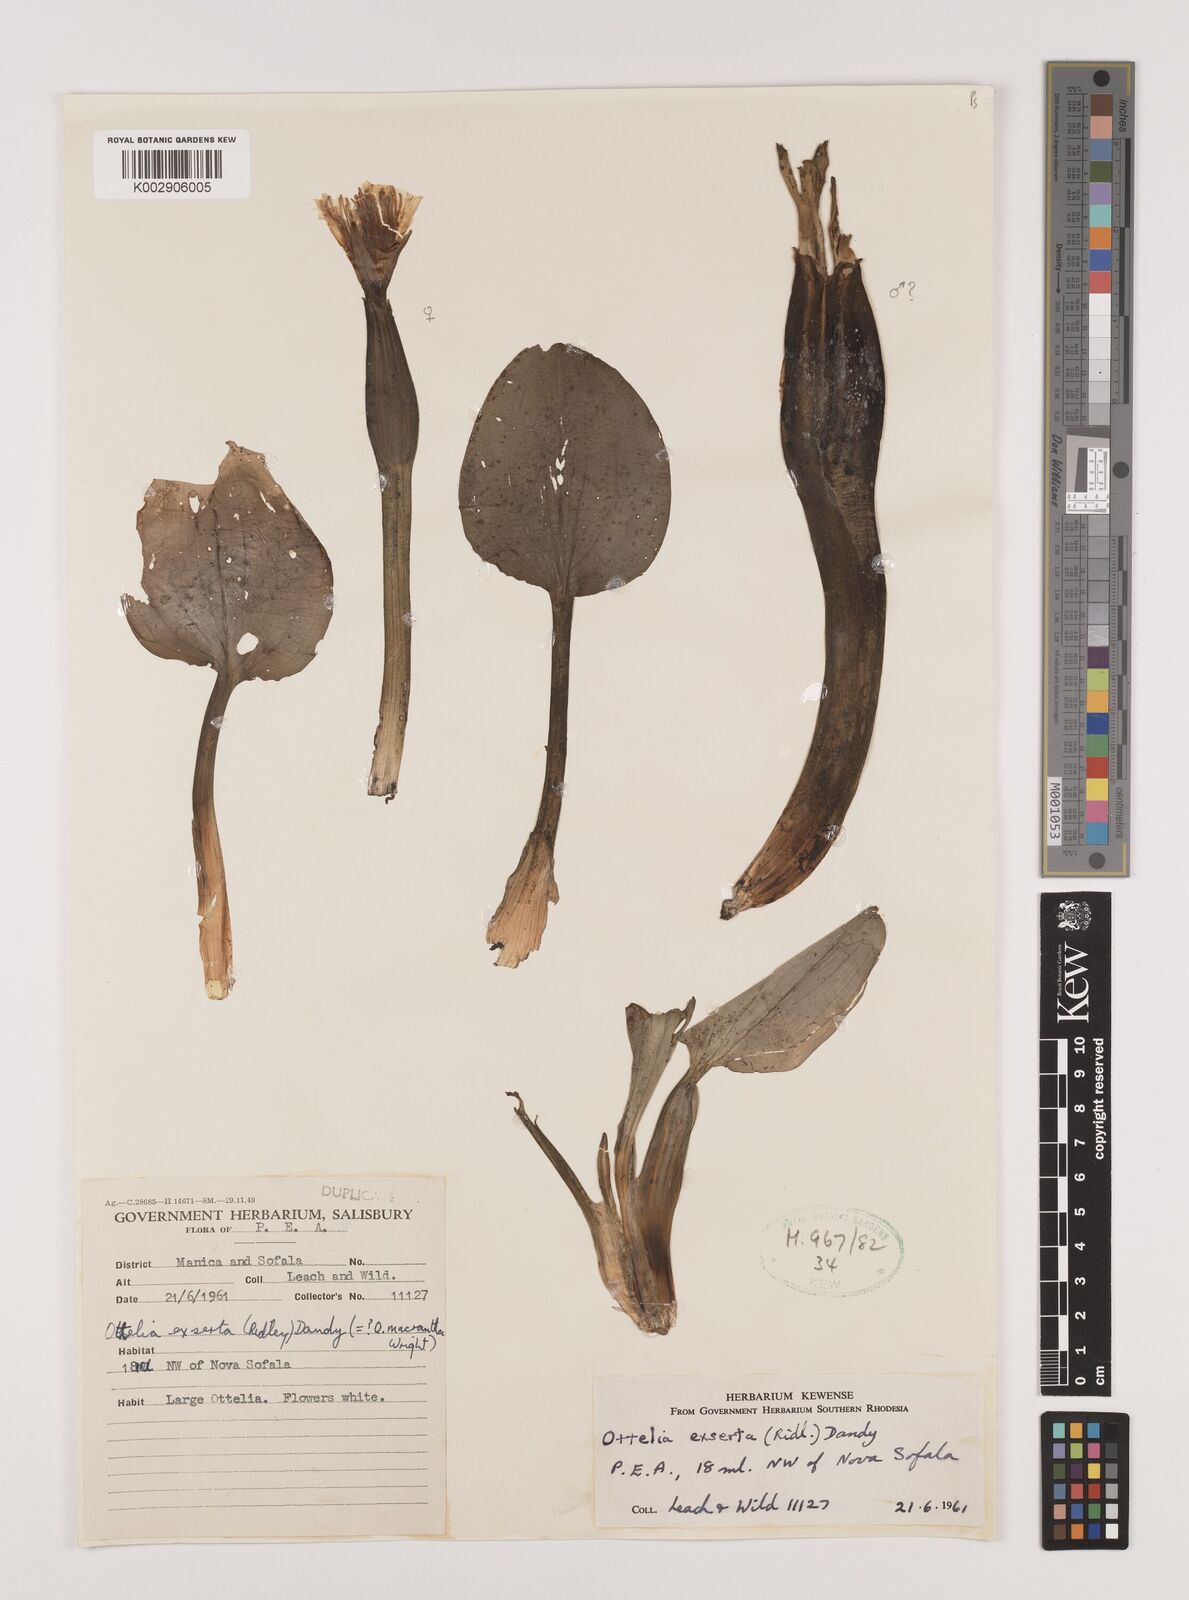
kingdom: Plantae
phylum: Tracheophyta
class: Liliopsida
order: Alismatales
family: Hydrocharitaceae
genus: Ottelia
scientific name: Ottelia exserta
